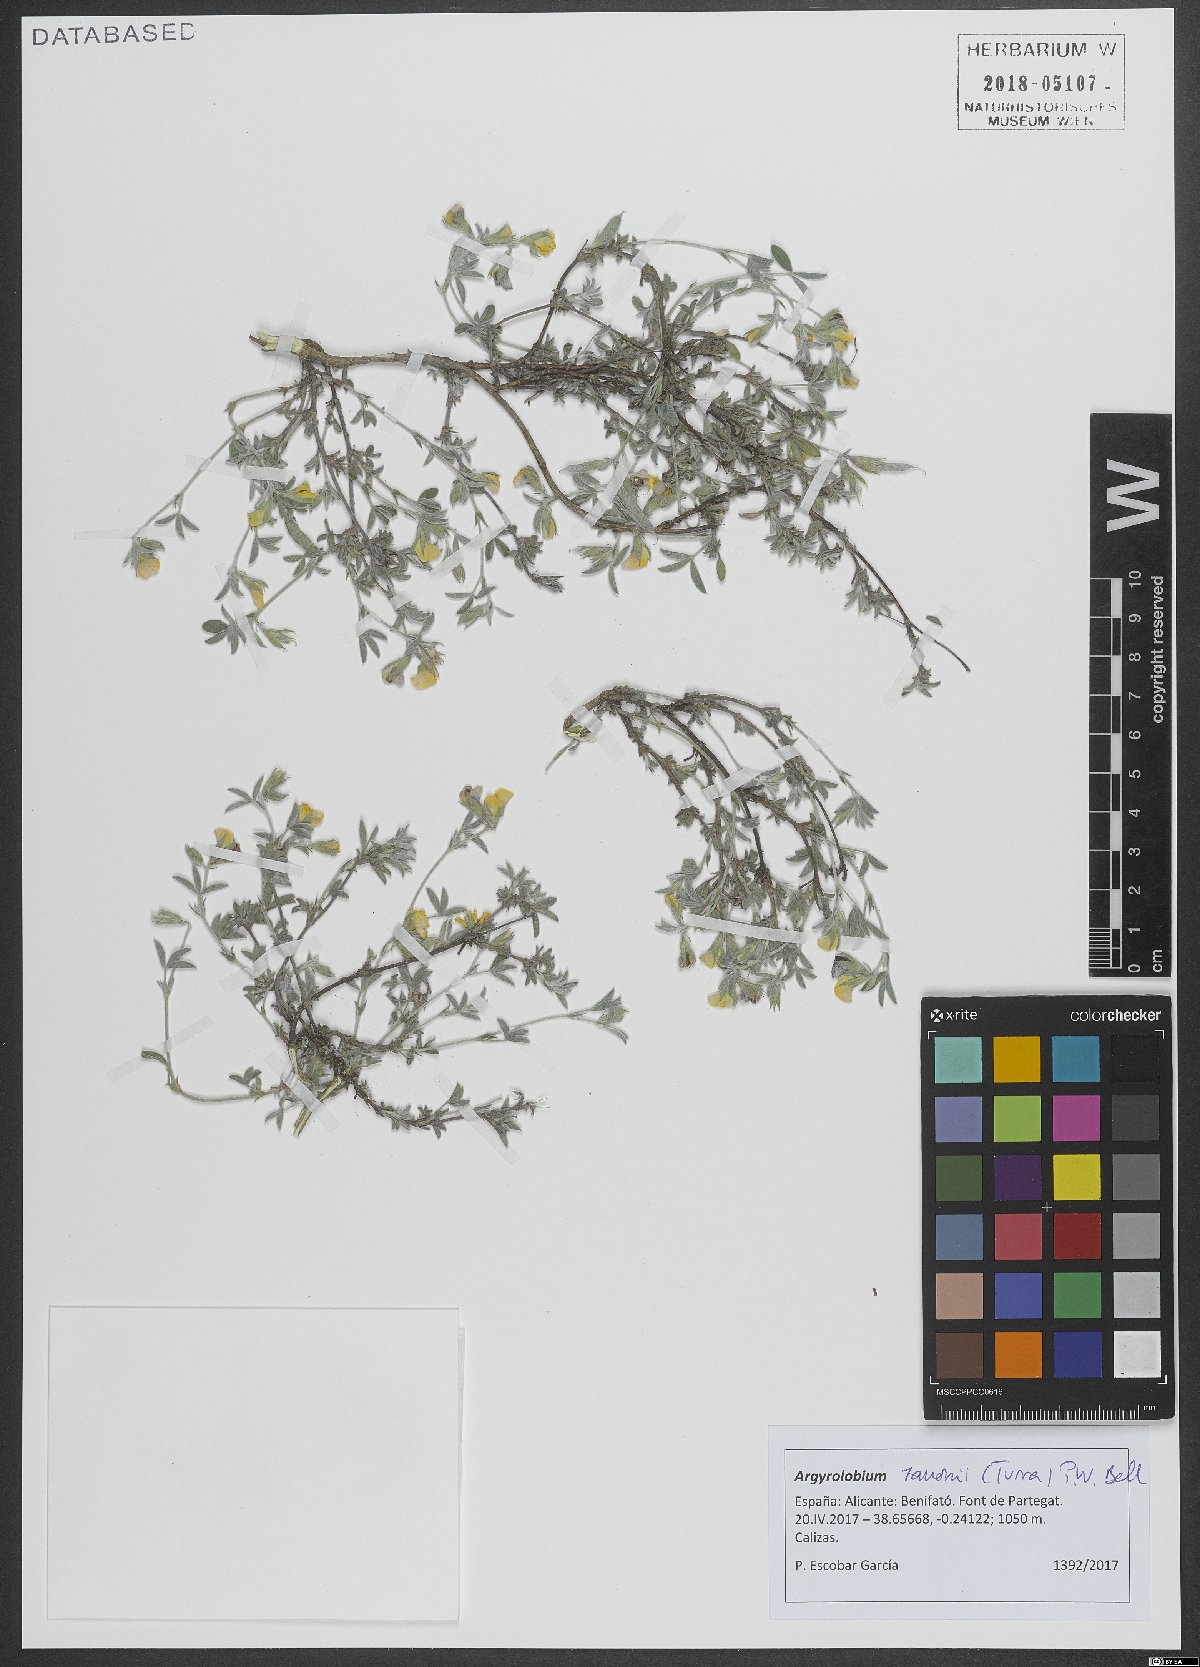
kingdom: Plantae
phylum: Tracheophyta
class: Magnoliopsida
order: Fabales
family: Fabaceae
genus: Argyrolobium
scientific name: Argyrolobium zanonii
